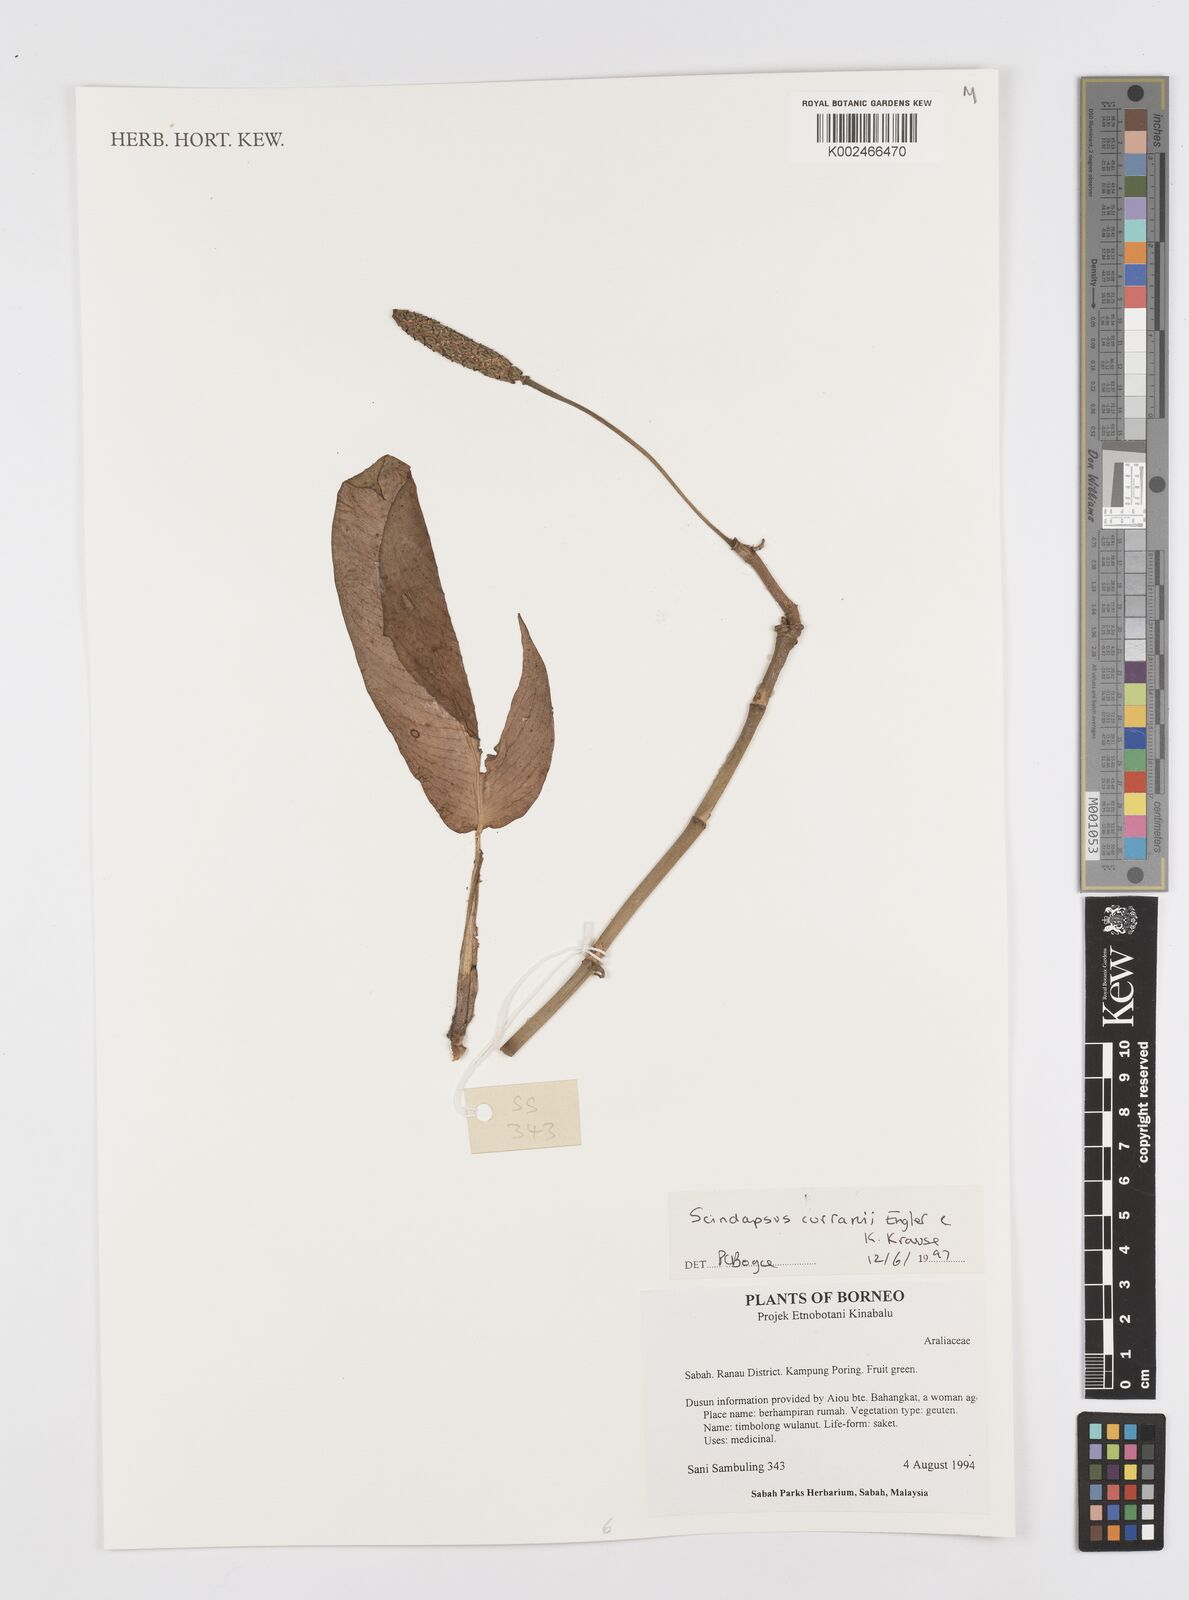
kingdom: Plantae
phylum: Tracheophyta
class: Liliopsida
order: Alismatales
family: Araceae
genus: Scindapsus
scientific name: Scindapsus curranii
